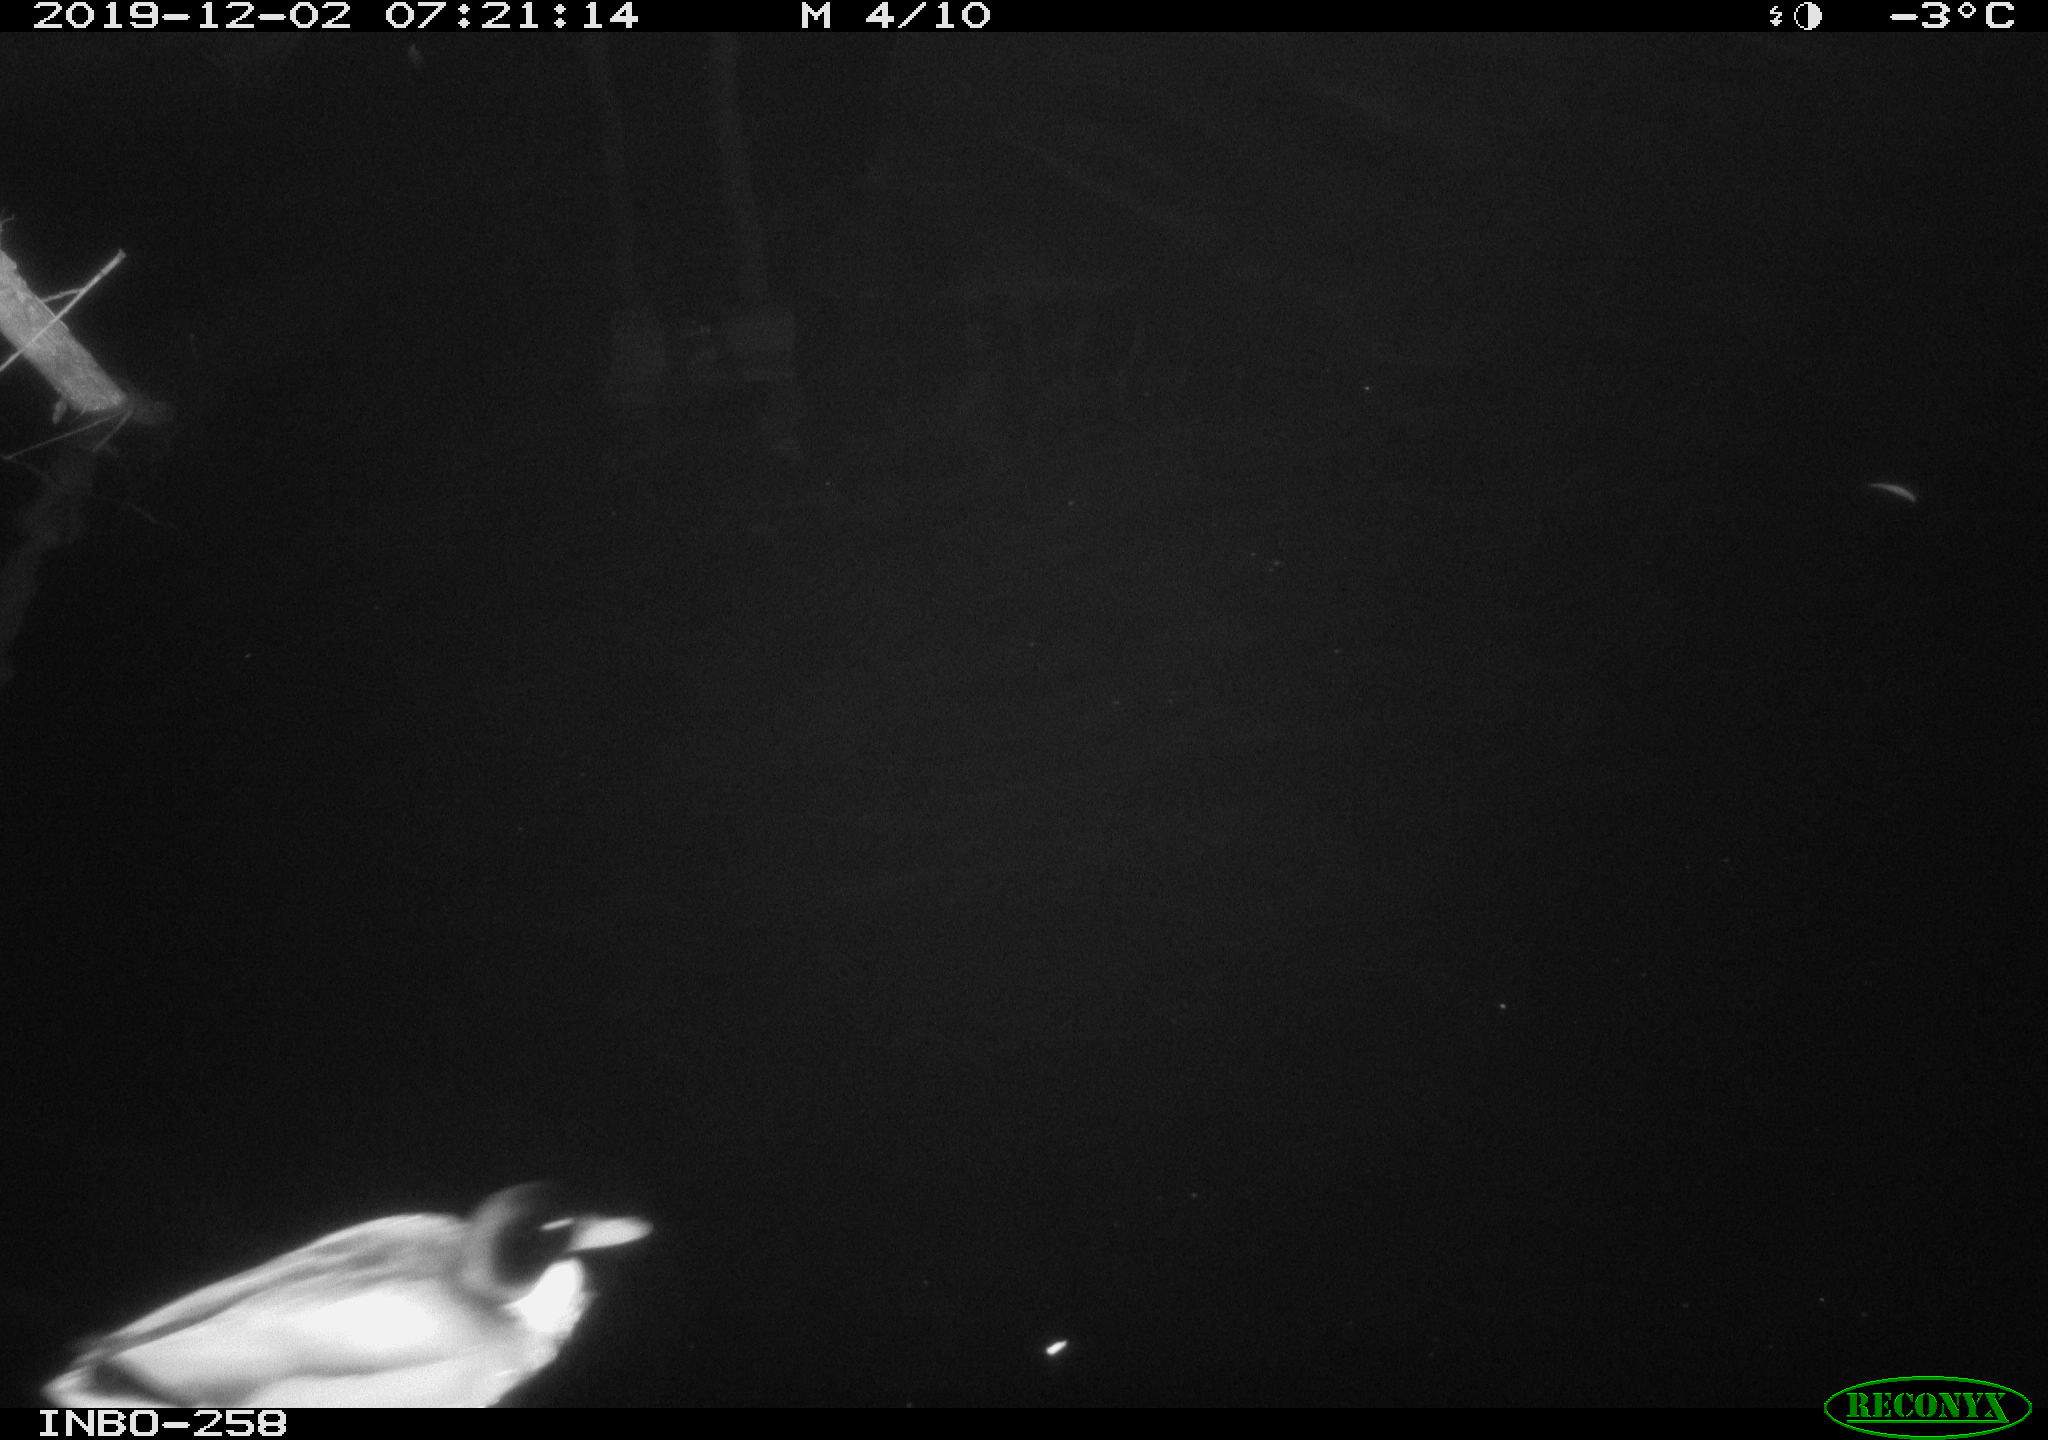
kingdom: Animalia
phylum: Chordata
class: Aves
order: Anseriformes
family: Anatidae
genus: Anas
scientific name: Anas platyrhynchos
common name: Mallard
